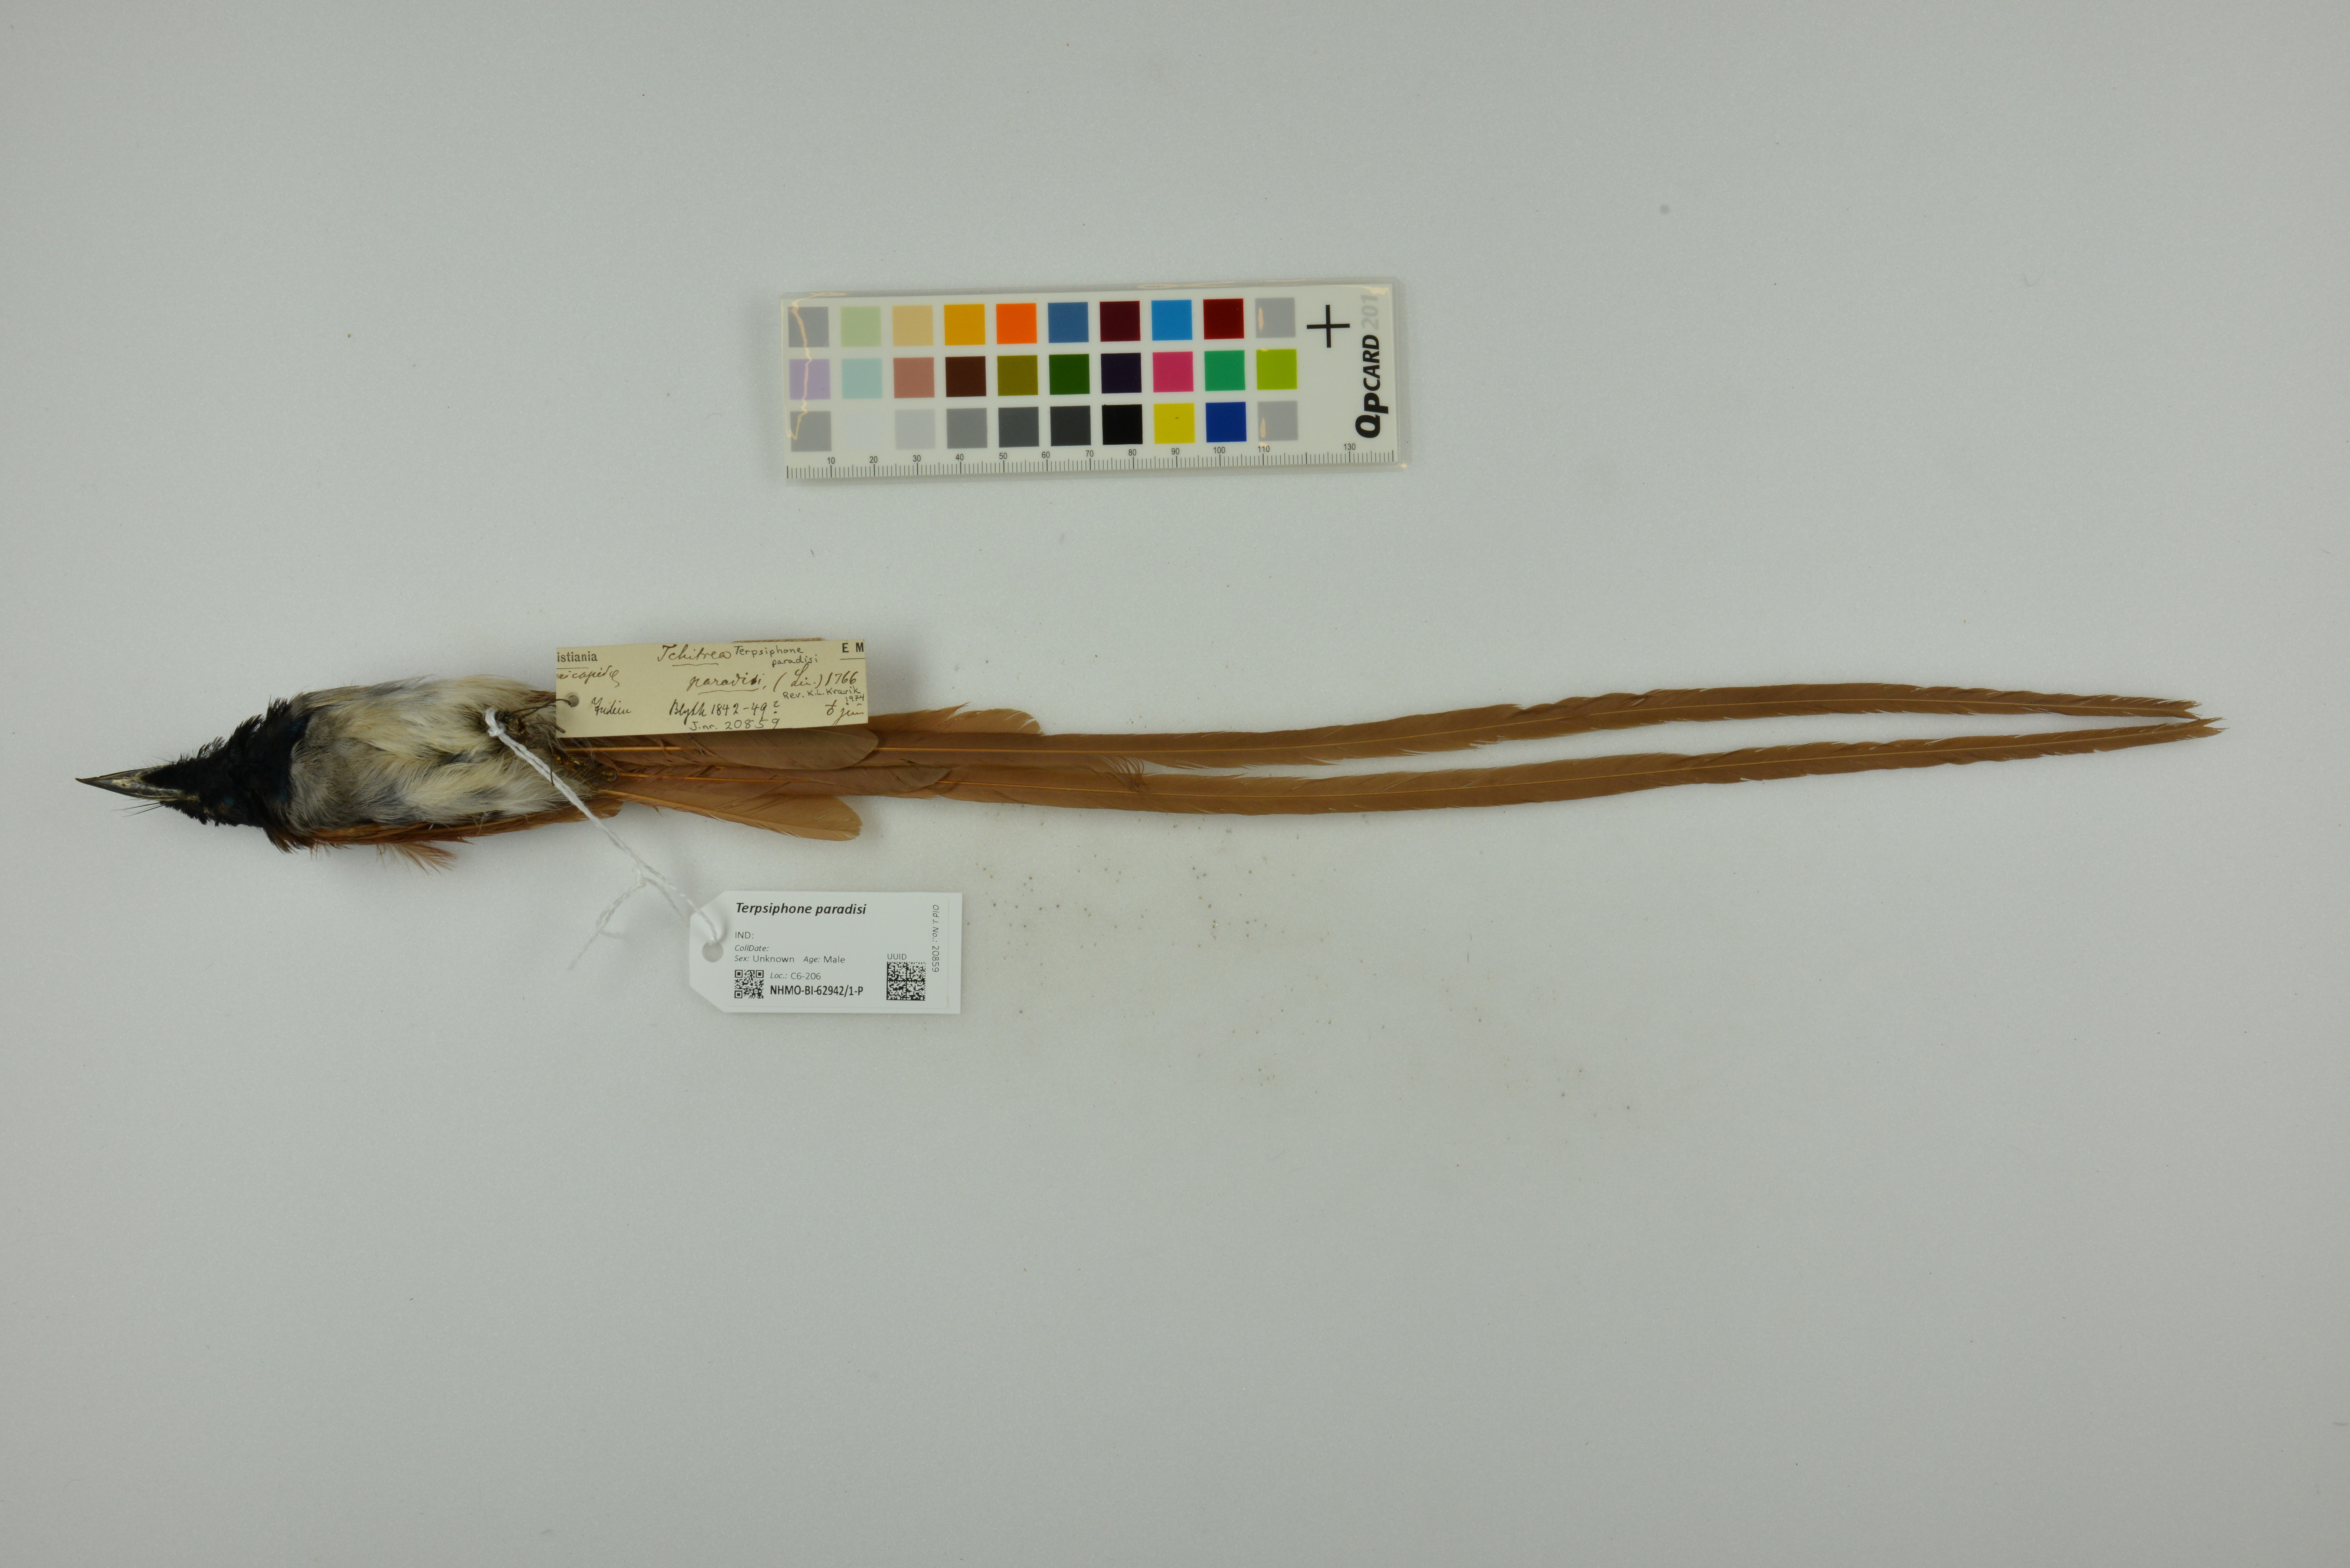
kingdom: Animalia
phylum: Chordata
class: Aves
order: Passeriformes
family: Monarchidae
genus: Terpsiphone
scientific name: Terpsiphone paradisi
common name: Indian paradise flycatcher
